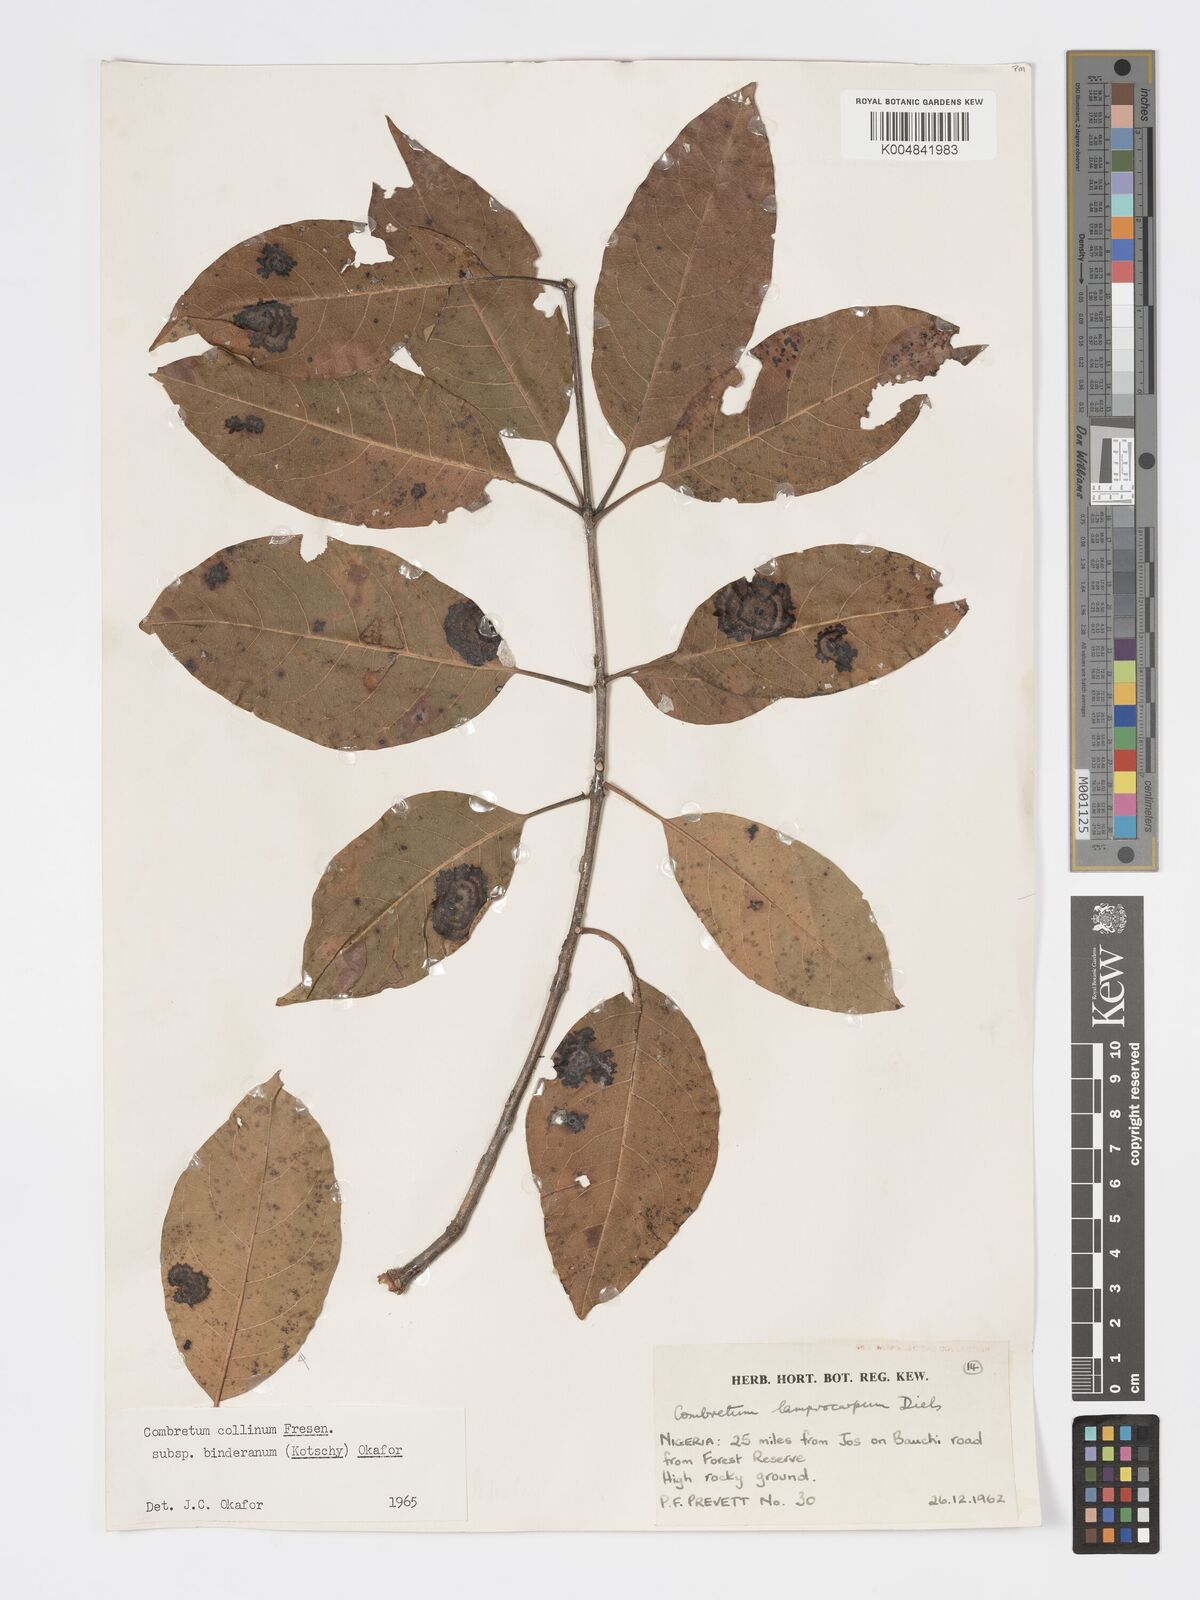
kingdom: Plantae
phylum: Tracheophyta
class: Magnoliopsida
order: Myrtales
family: Combretaceae
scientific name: Combretaceae
